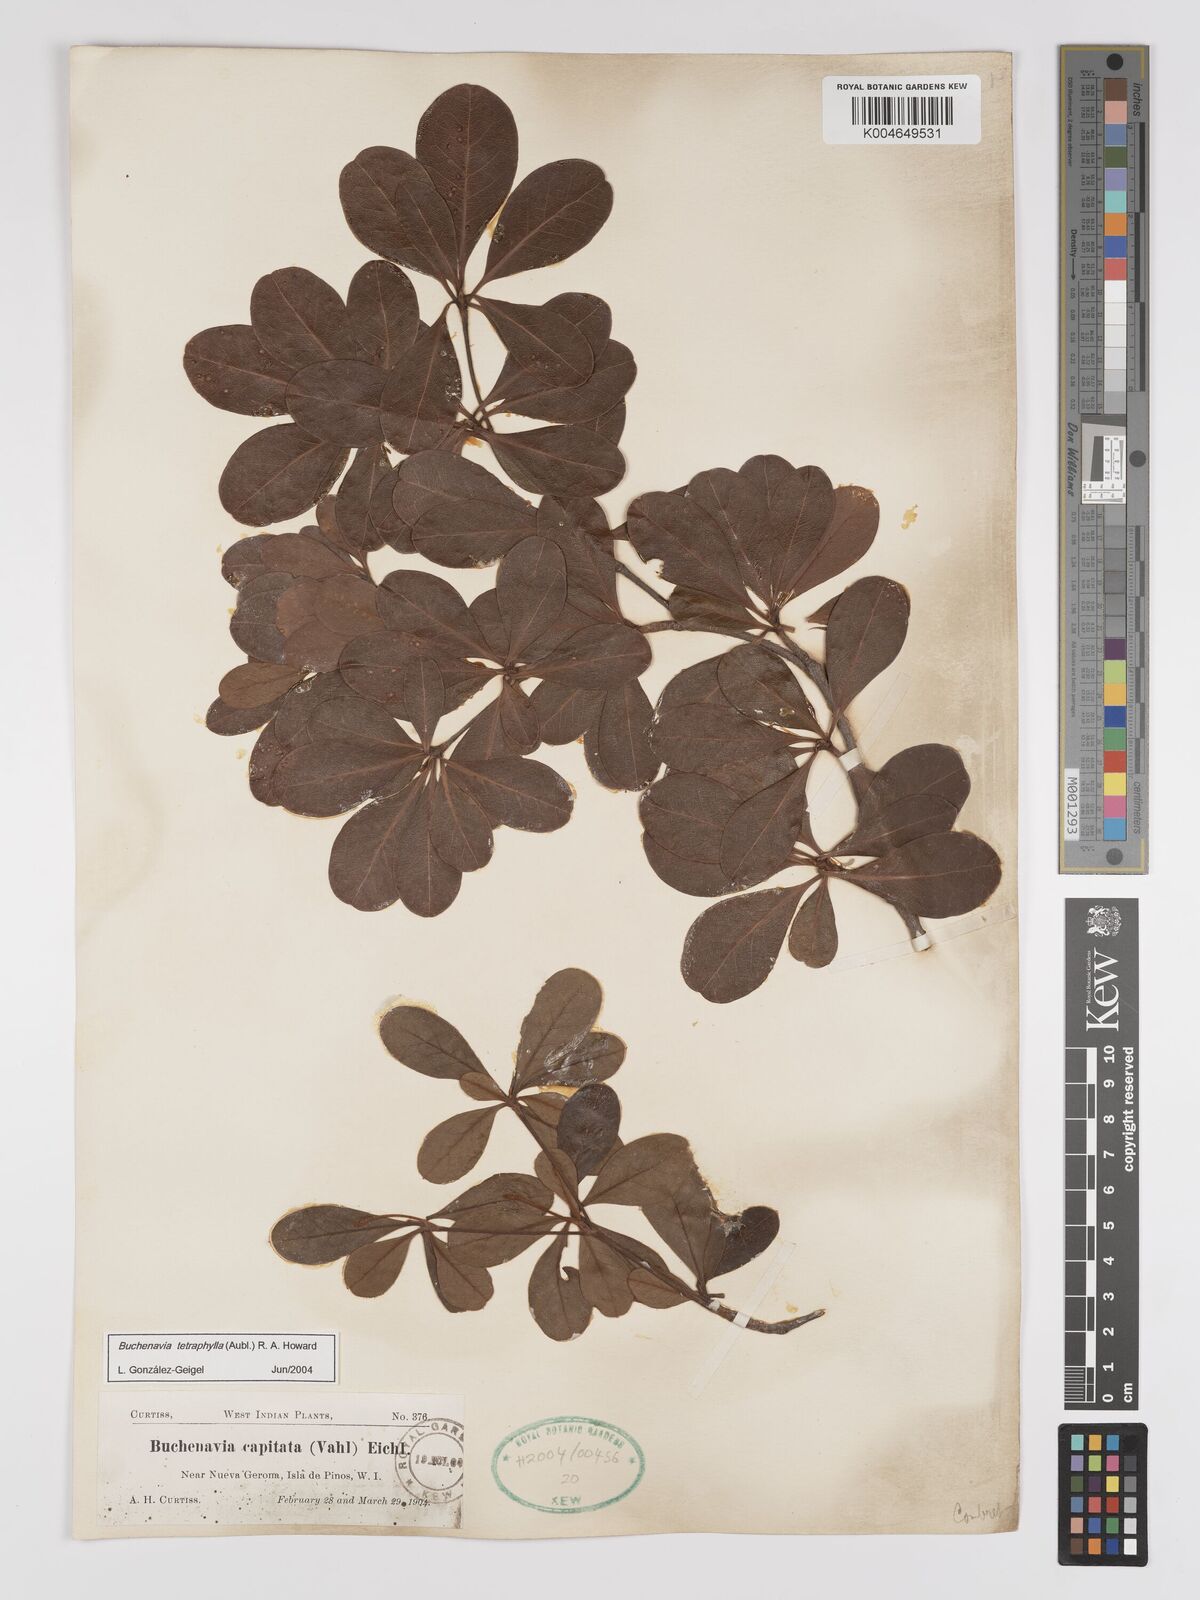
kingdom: Plantae
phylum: Tracheophyta
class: Magnoliopsida
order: Myrtales
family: Combretaceae
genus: Terminalia
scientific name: Terminalia tetraphylla
